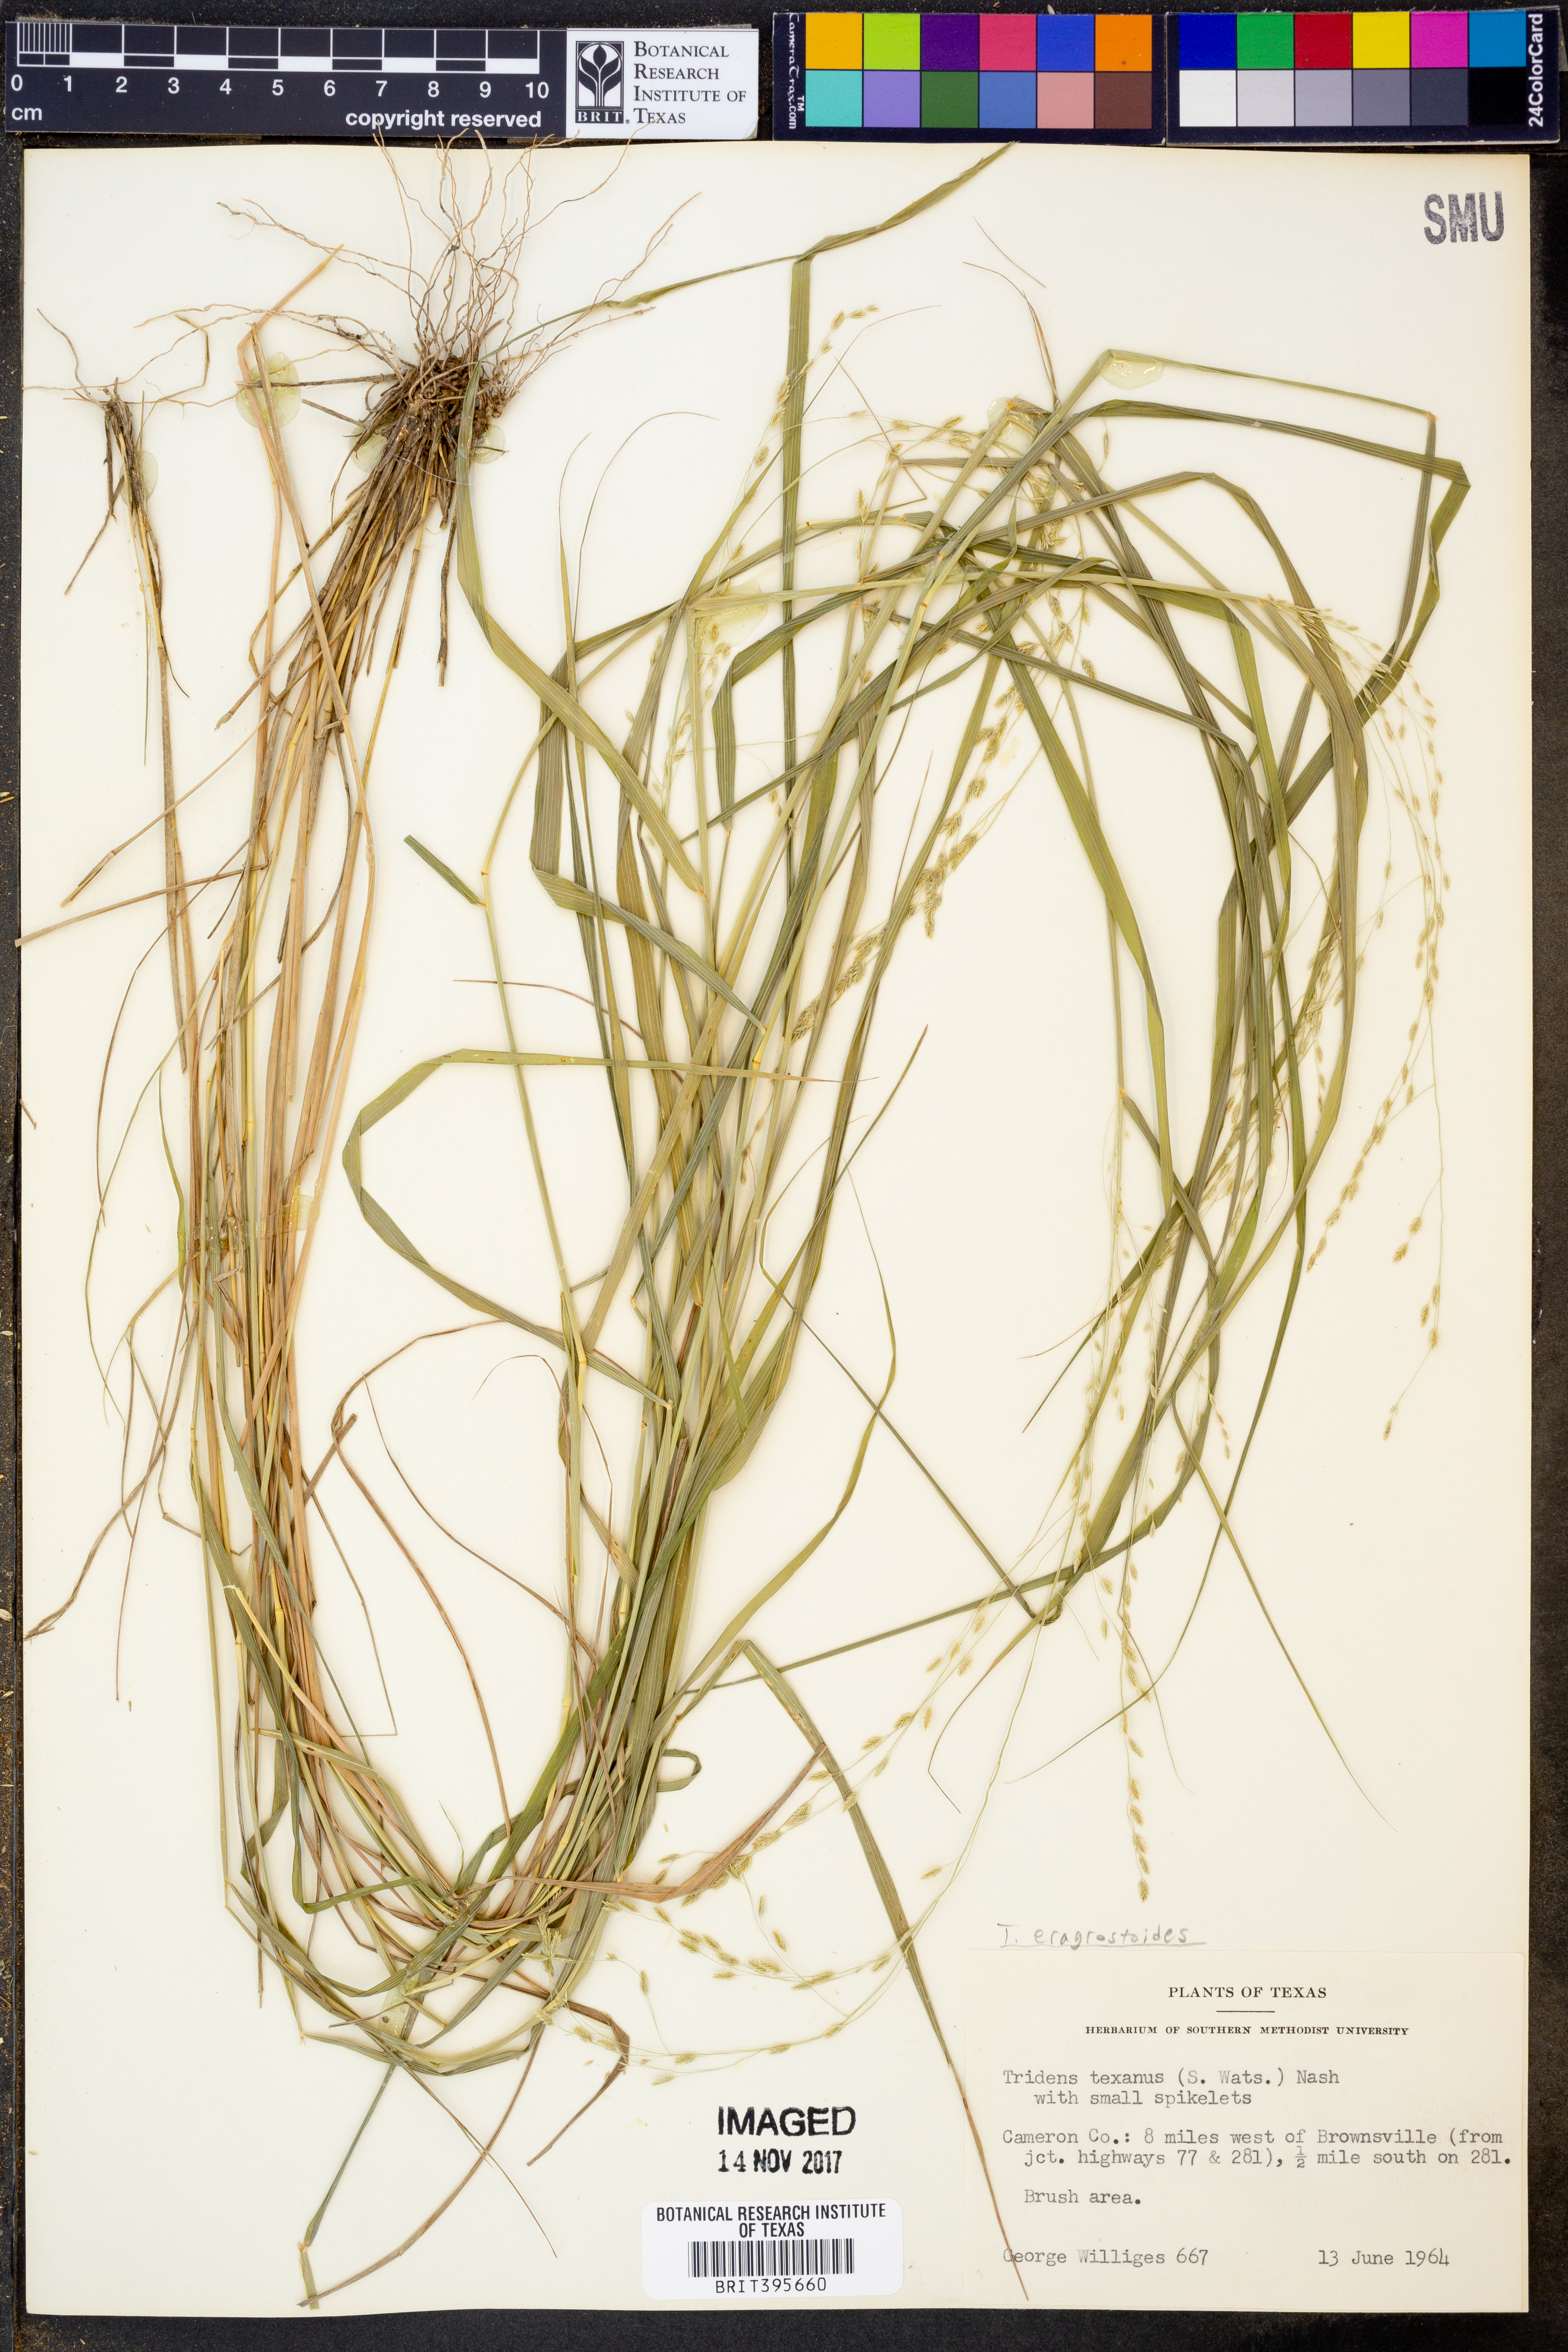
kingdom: Plantae
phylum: Tracheophyta
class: Liliopsida
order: Poales
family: Poaceae
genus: Triplasiella
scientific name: Triplasiella eragrostoides
